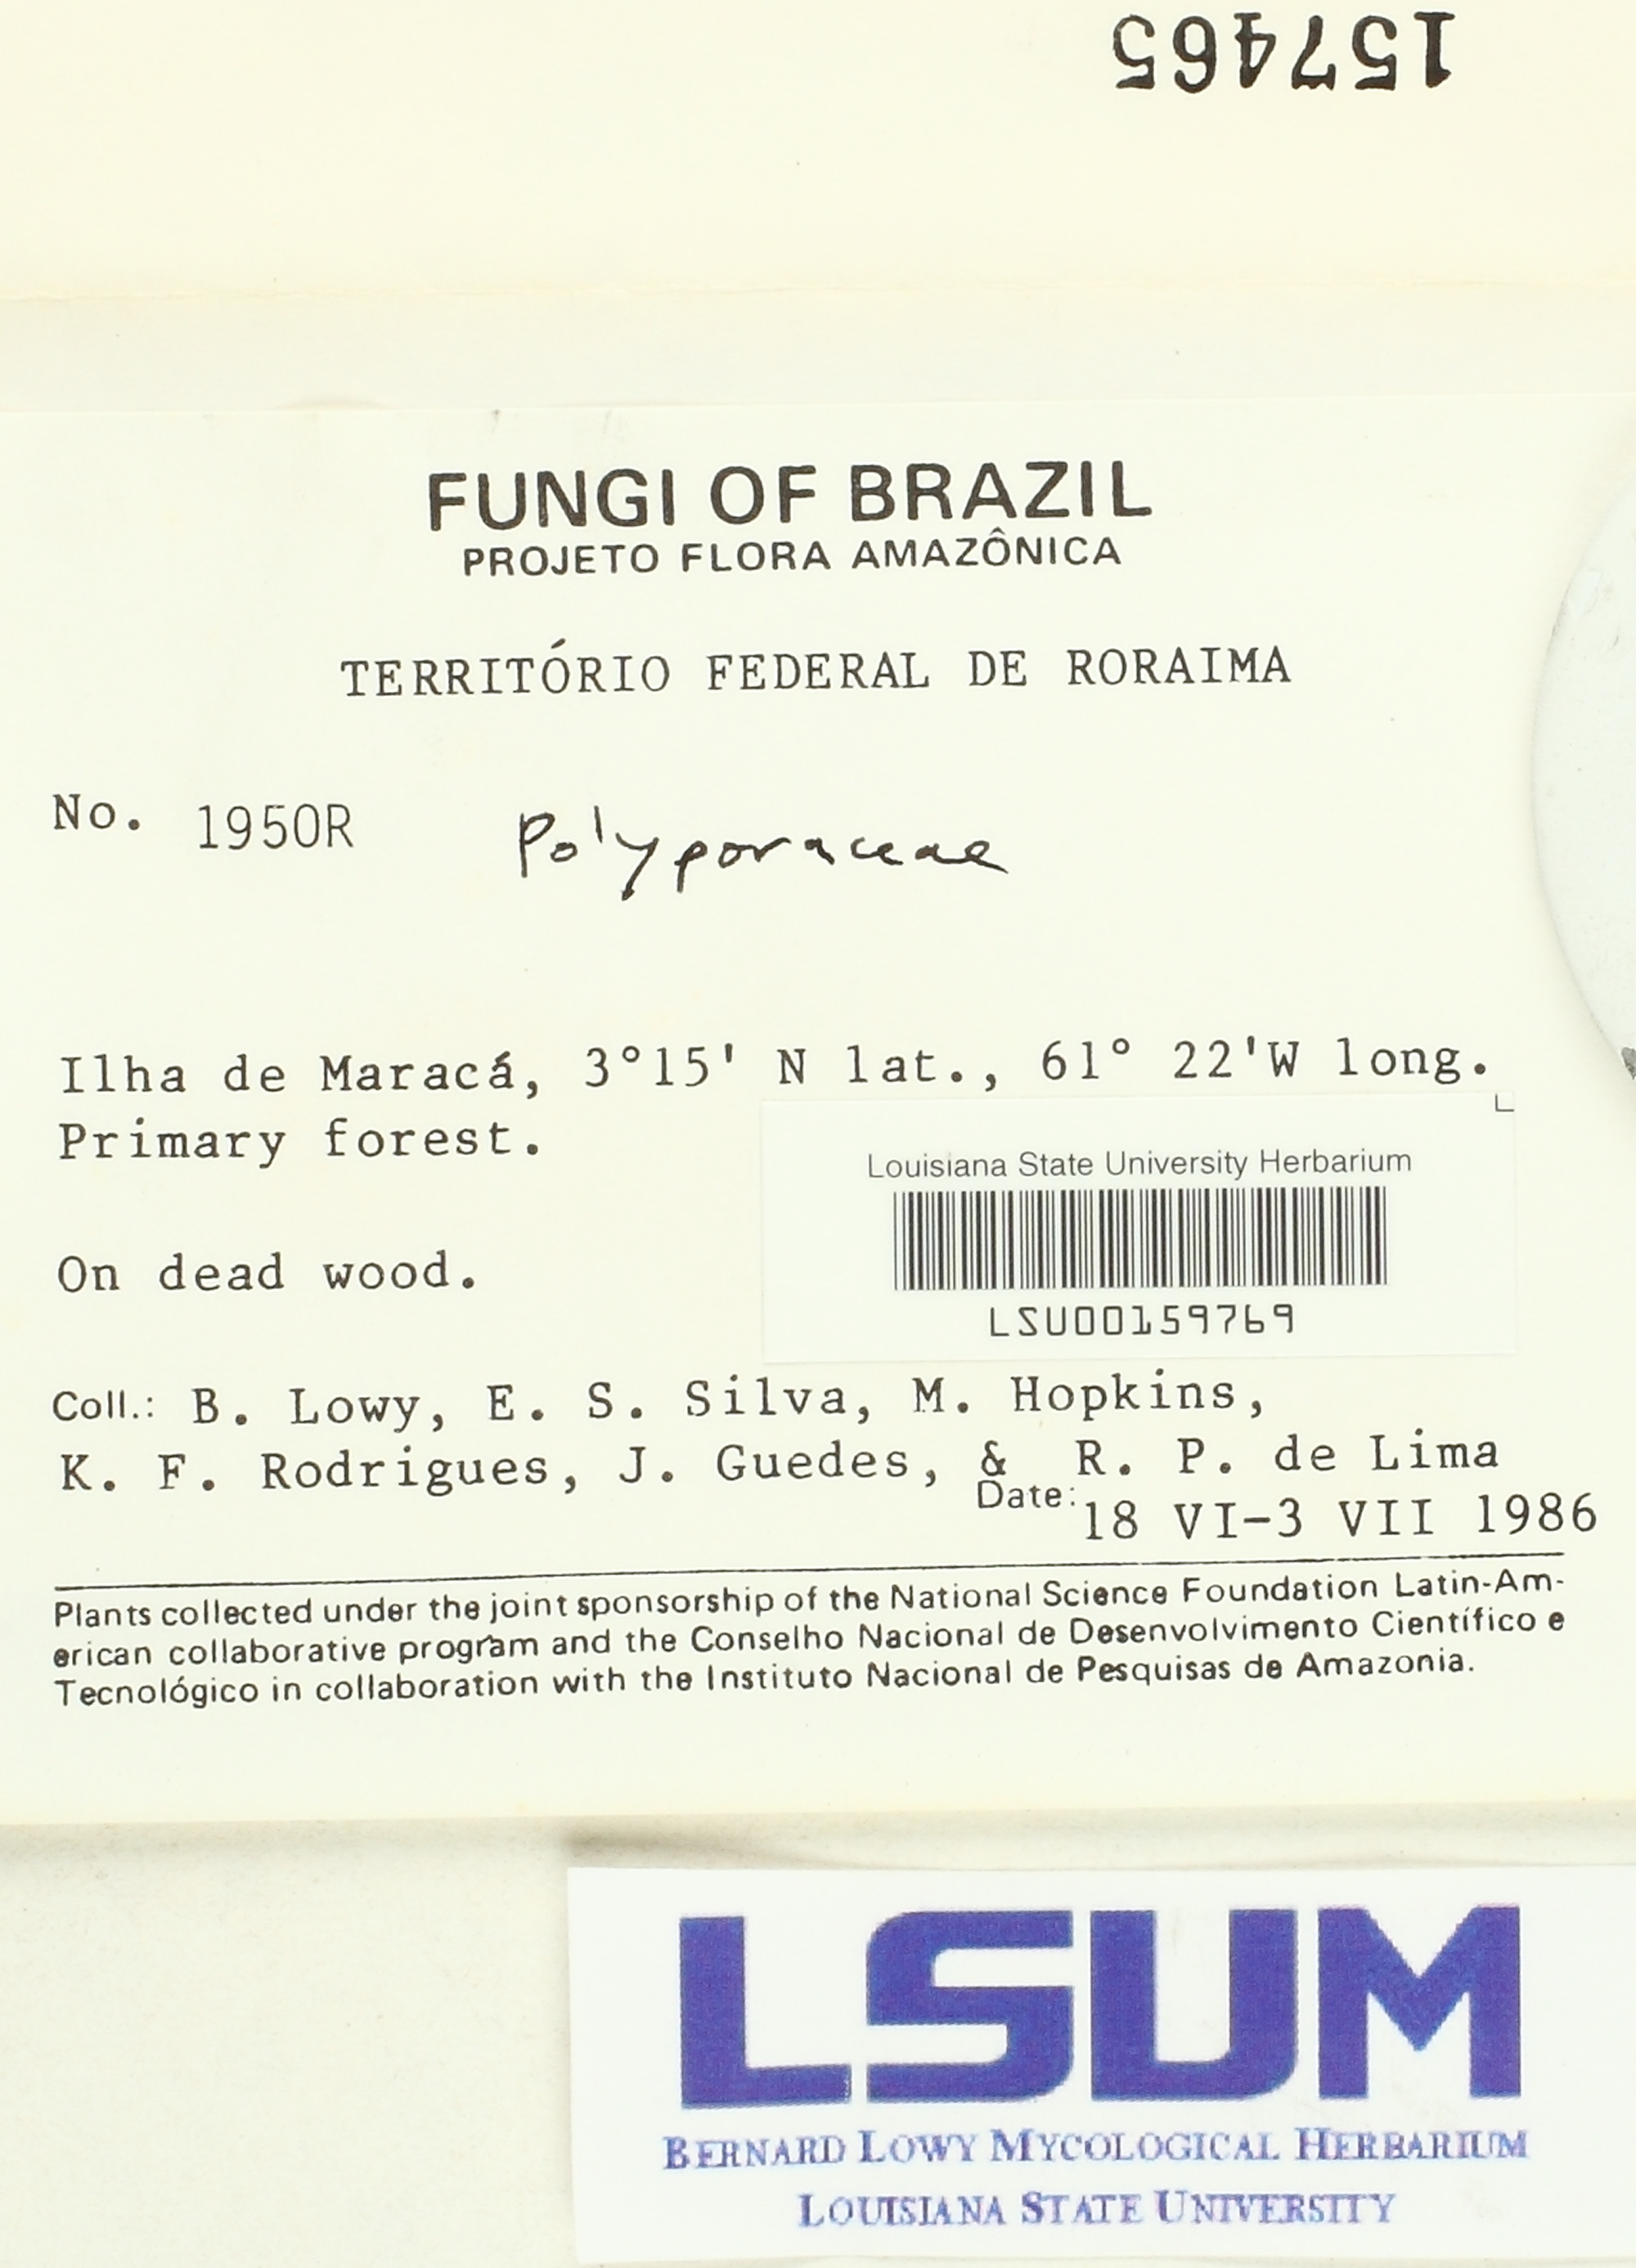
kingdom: Fungi
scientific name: Fungi
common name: Fungi
